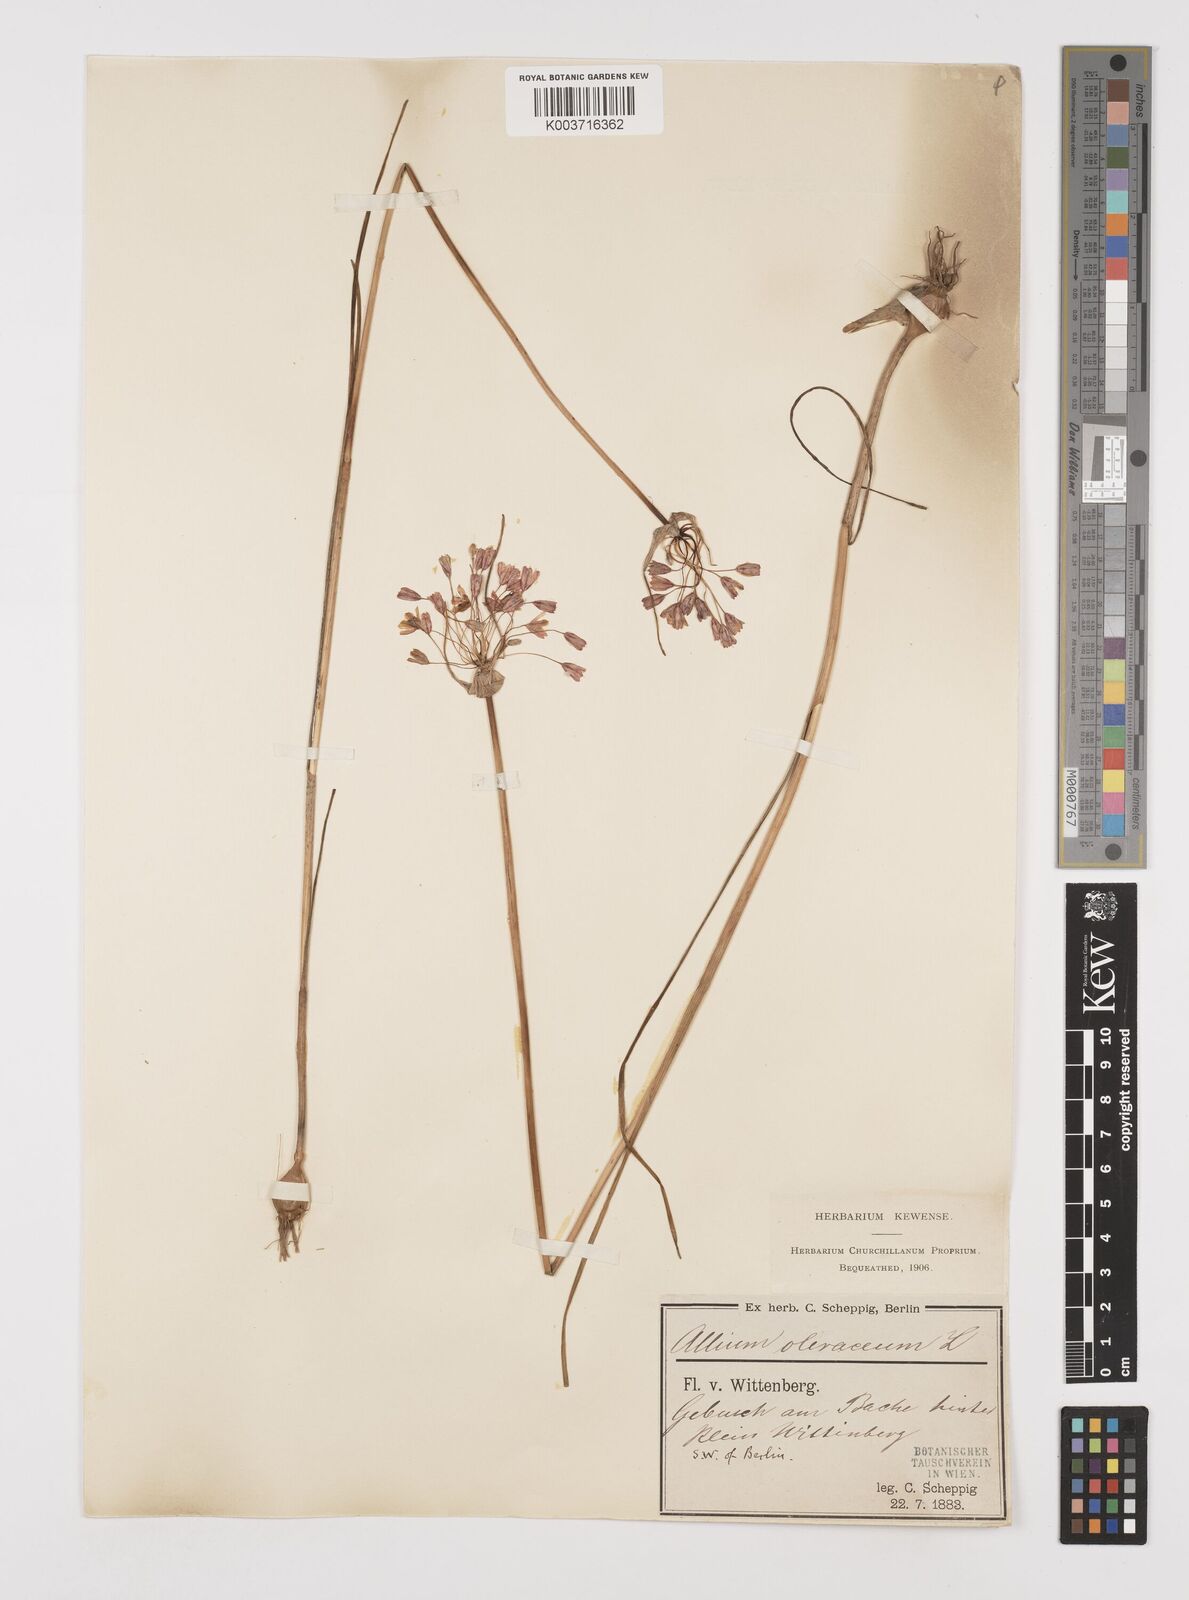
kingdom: Plantae
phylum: Tracheophyta
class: Liliopsida
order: Asparagales
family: Amaryllidaceae
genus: Allium
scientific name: Allium oleraceum
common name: Field garlic
